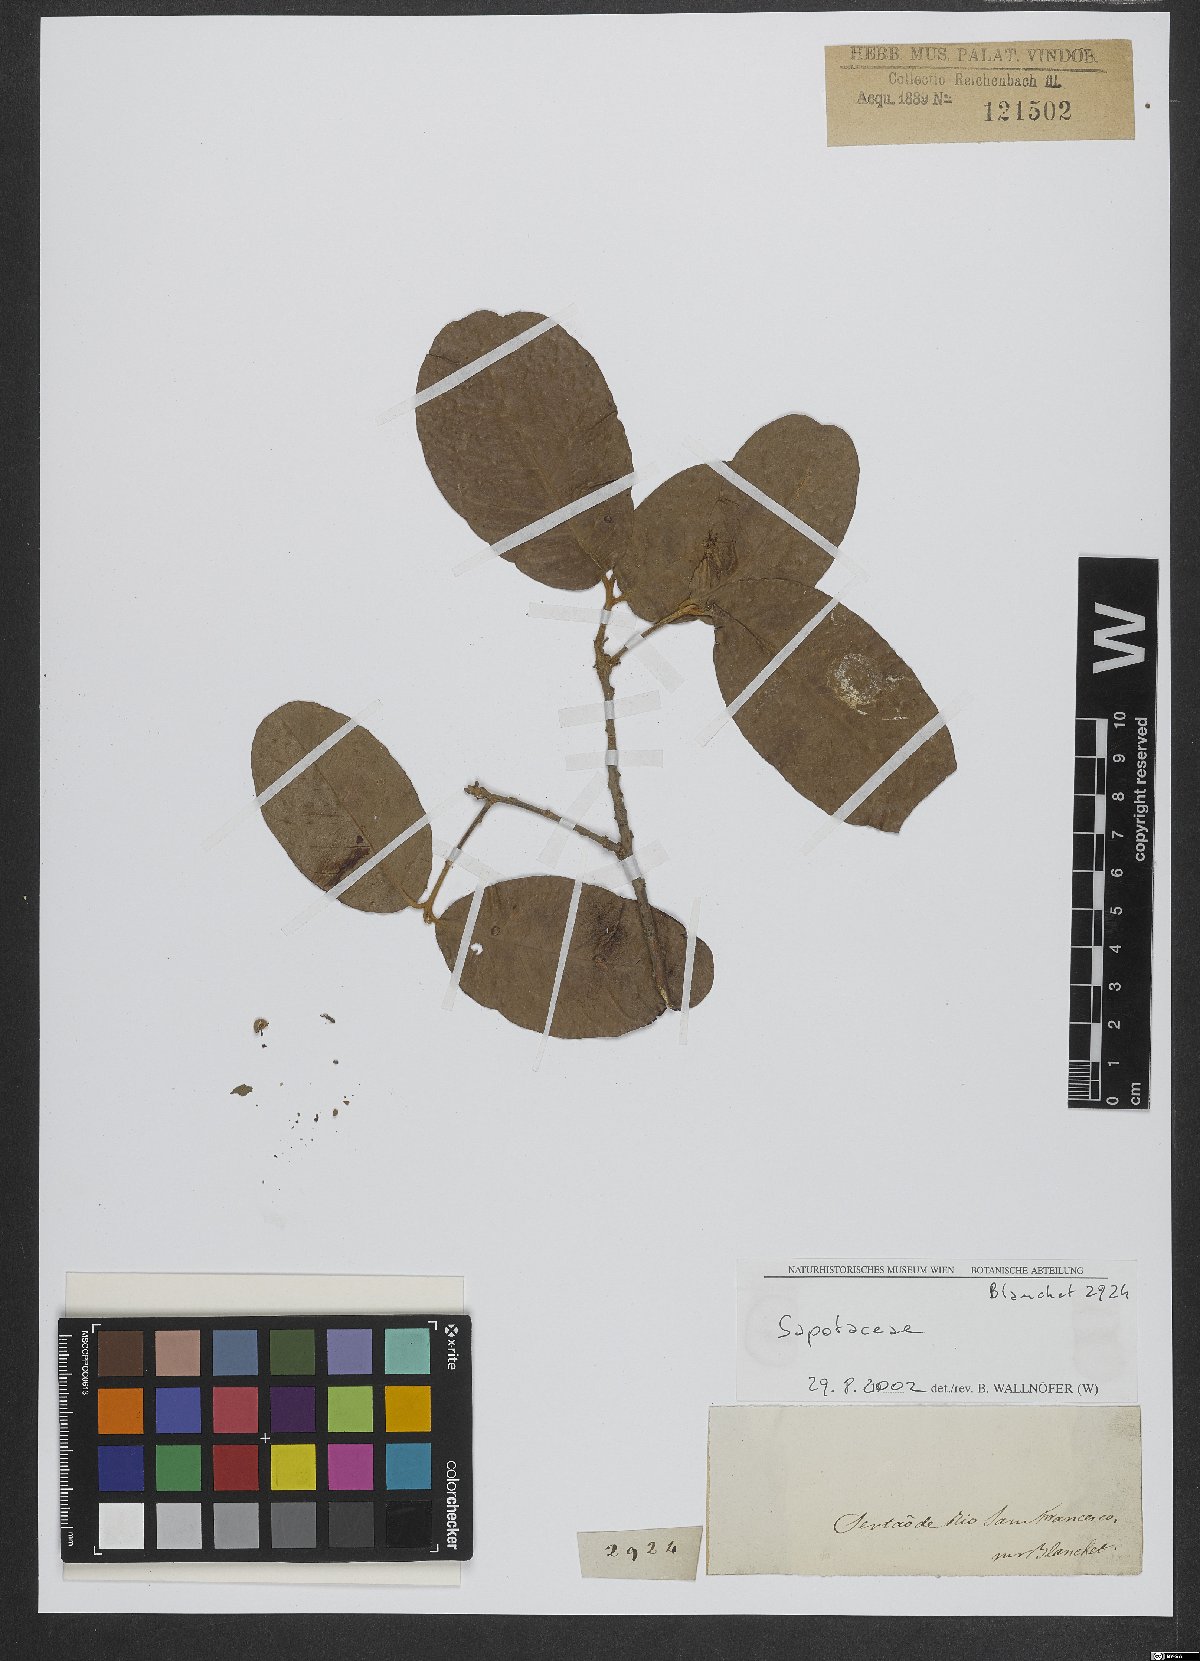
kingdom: Plantae
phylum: Tracheophyta
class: Magnoliopsida
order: Ericales
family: Sapotaceae
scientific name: Sapotaceae
